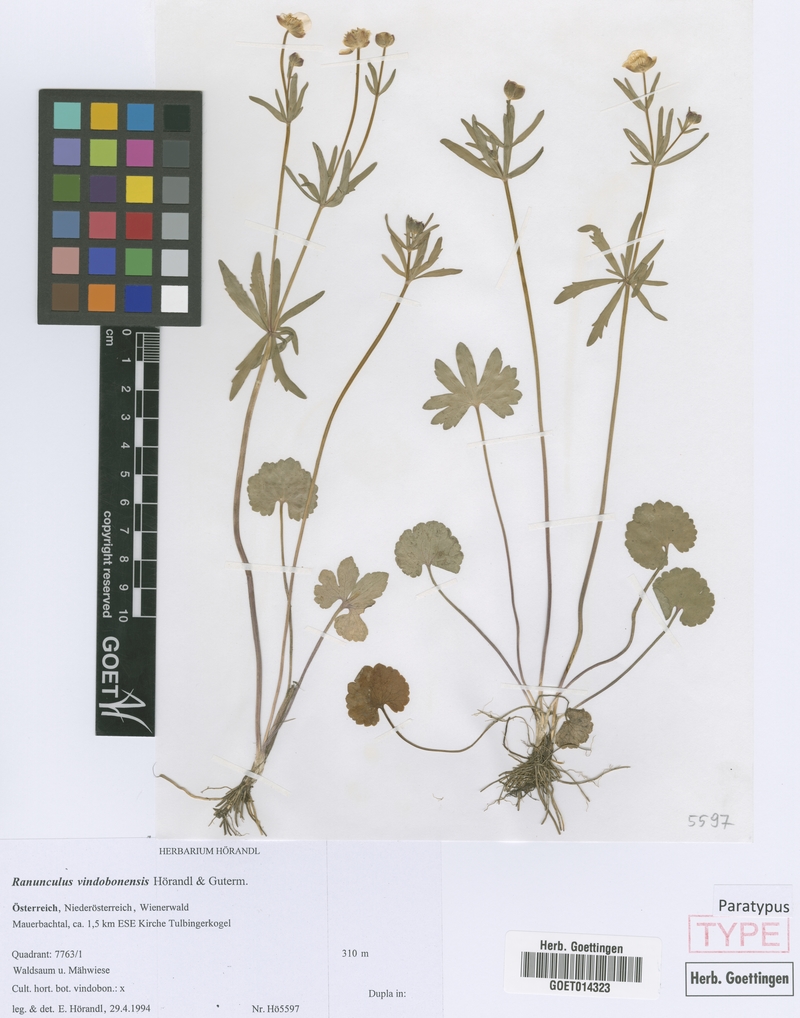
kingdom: Plantae
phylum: Tracheophyta
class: Magnoliopsida
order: Ranunculales
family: Ranunculaceae
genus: Ranunculus
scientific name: Ranunculus vindobonensis
